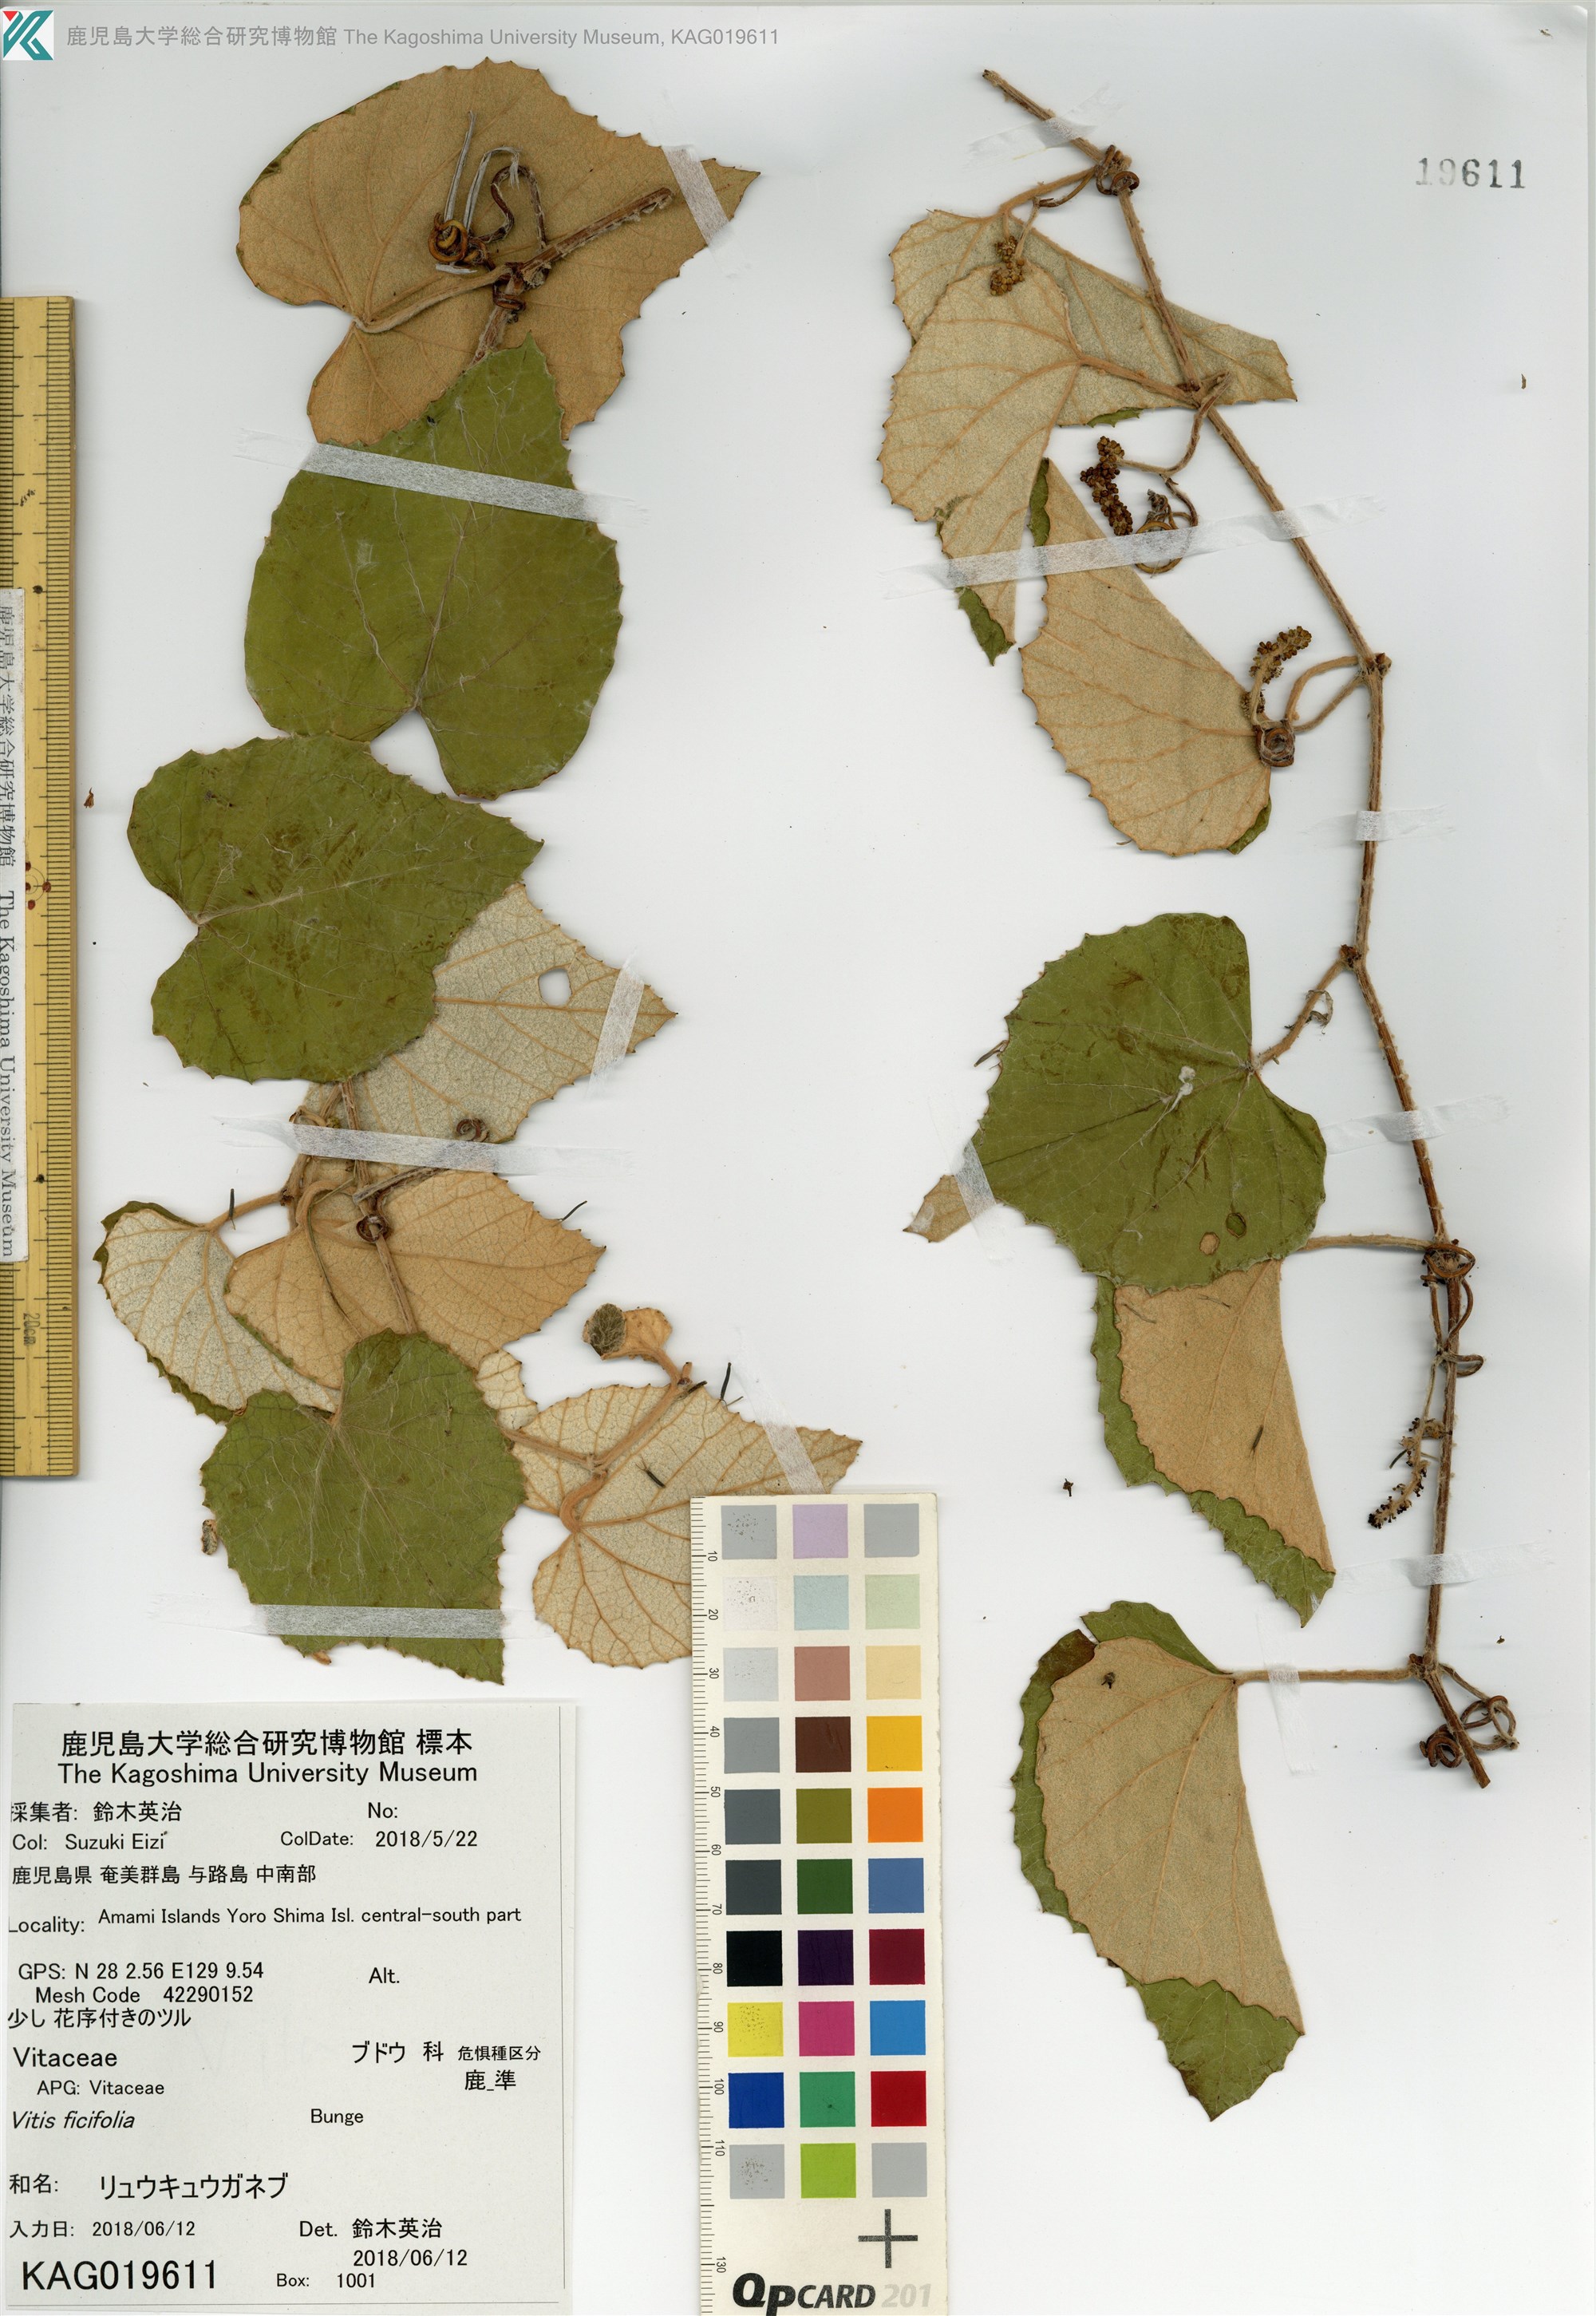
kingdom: Plantae
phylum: Tracheophyta
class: Magnoliopsida
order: Vitales
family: Vitaceae
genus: Vitis
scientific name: Vitis ficifolia
